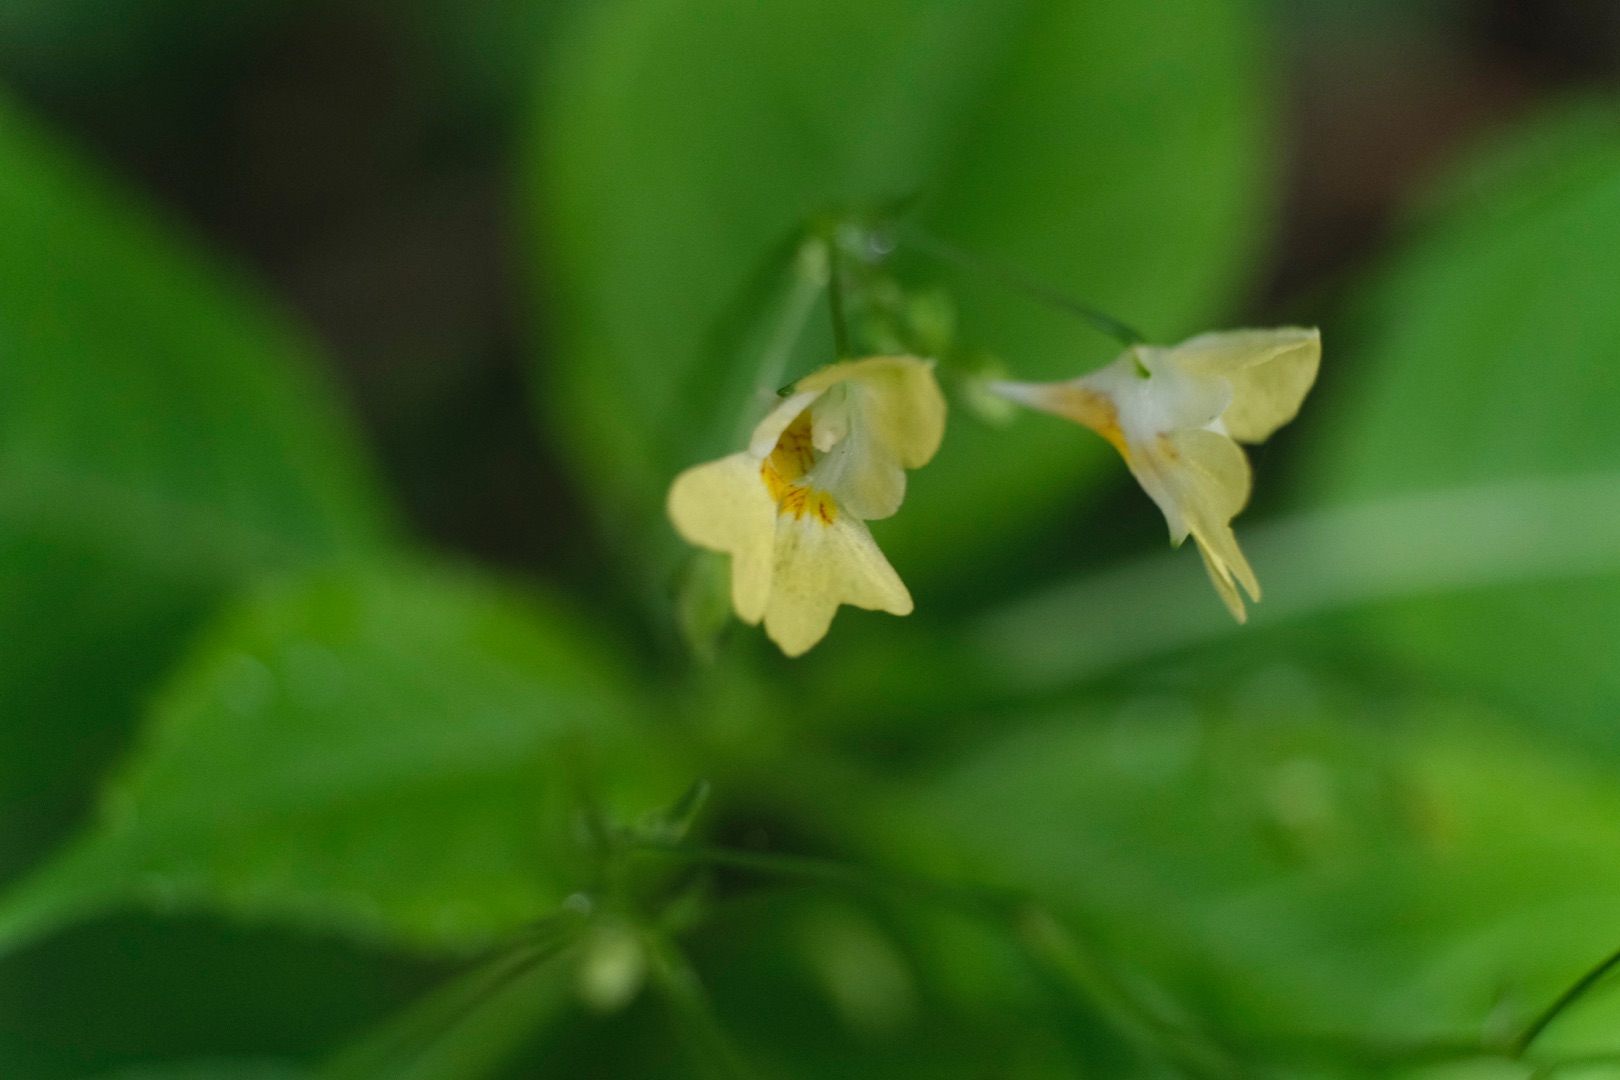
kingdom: Plantae
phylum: Tracheophyta
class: Magnoliopsida
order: Ericales
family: Balsaminaceae
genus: Impatiens
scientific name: Impatiens parviflora
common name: Småblomstret balsamin
